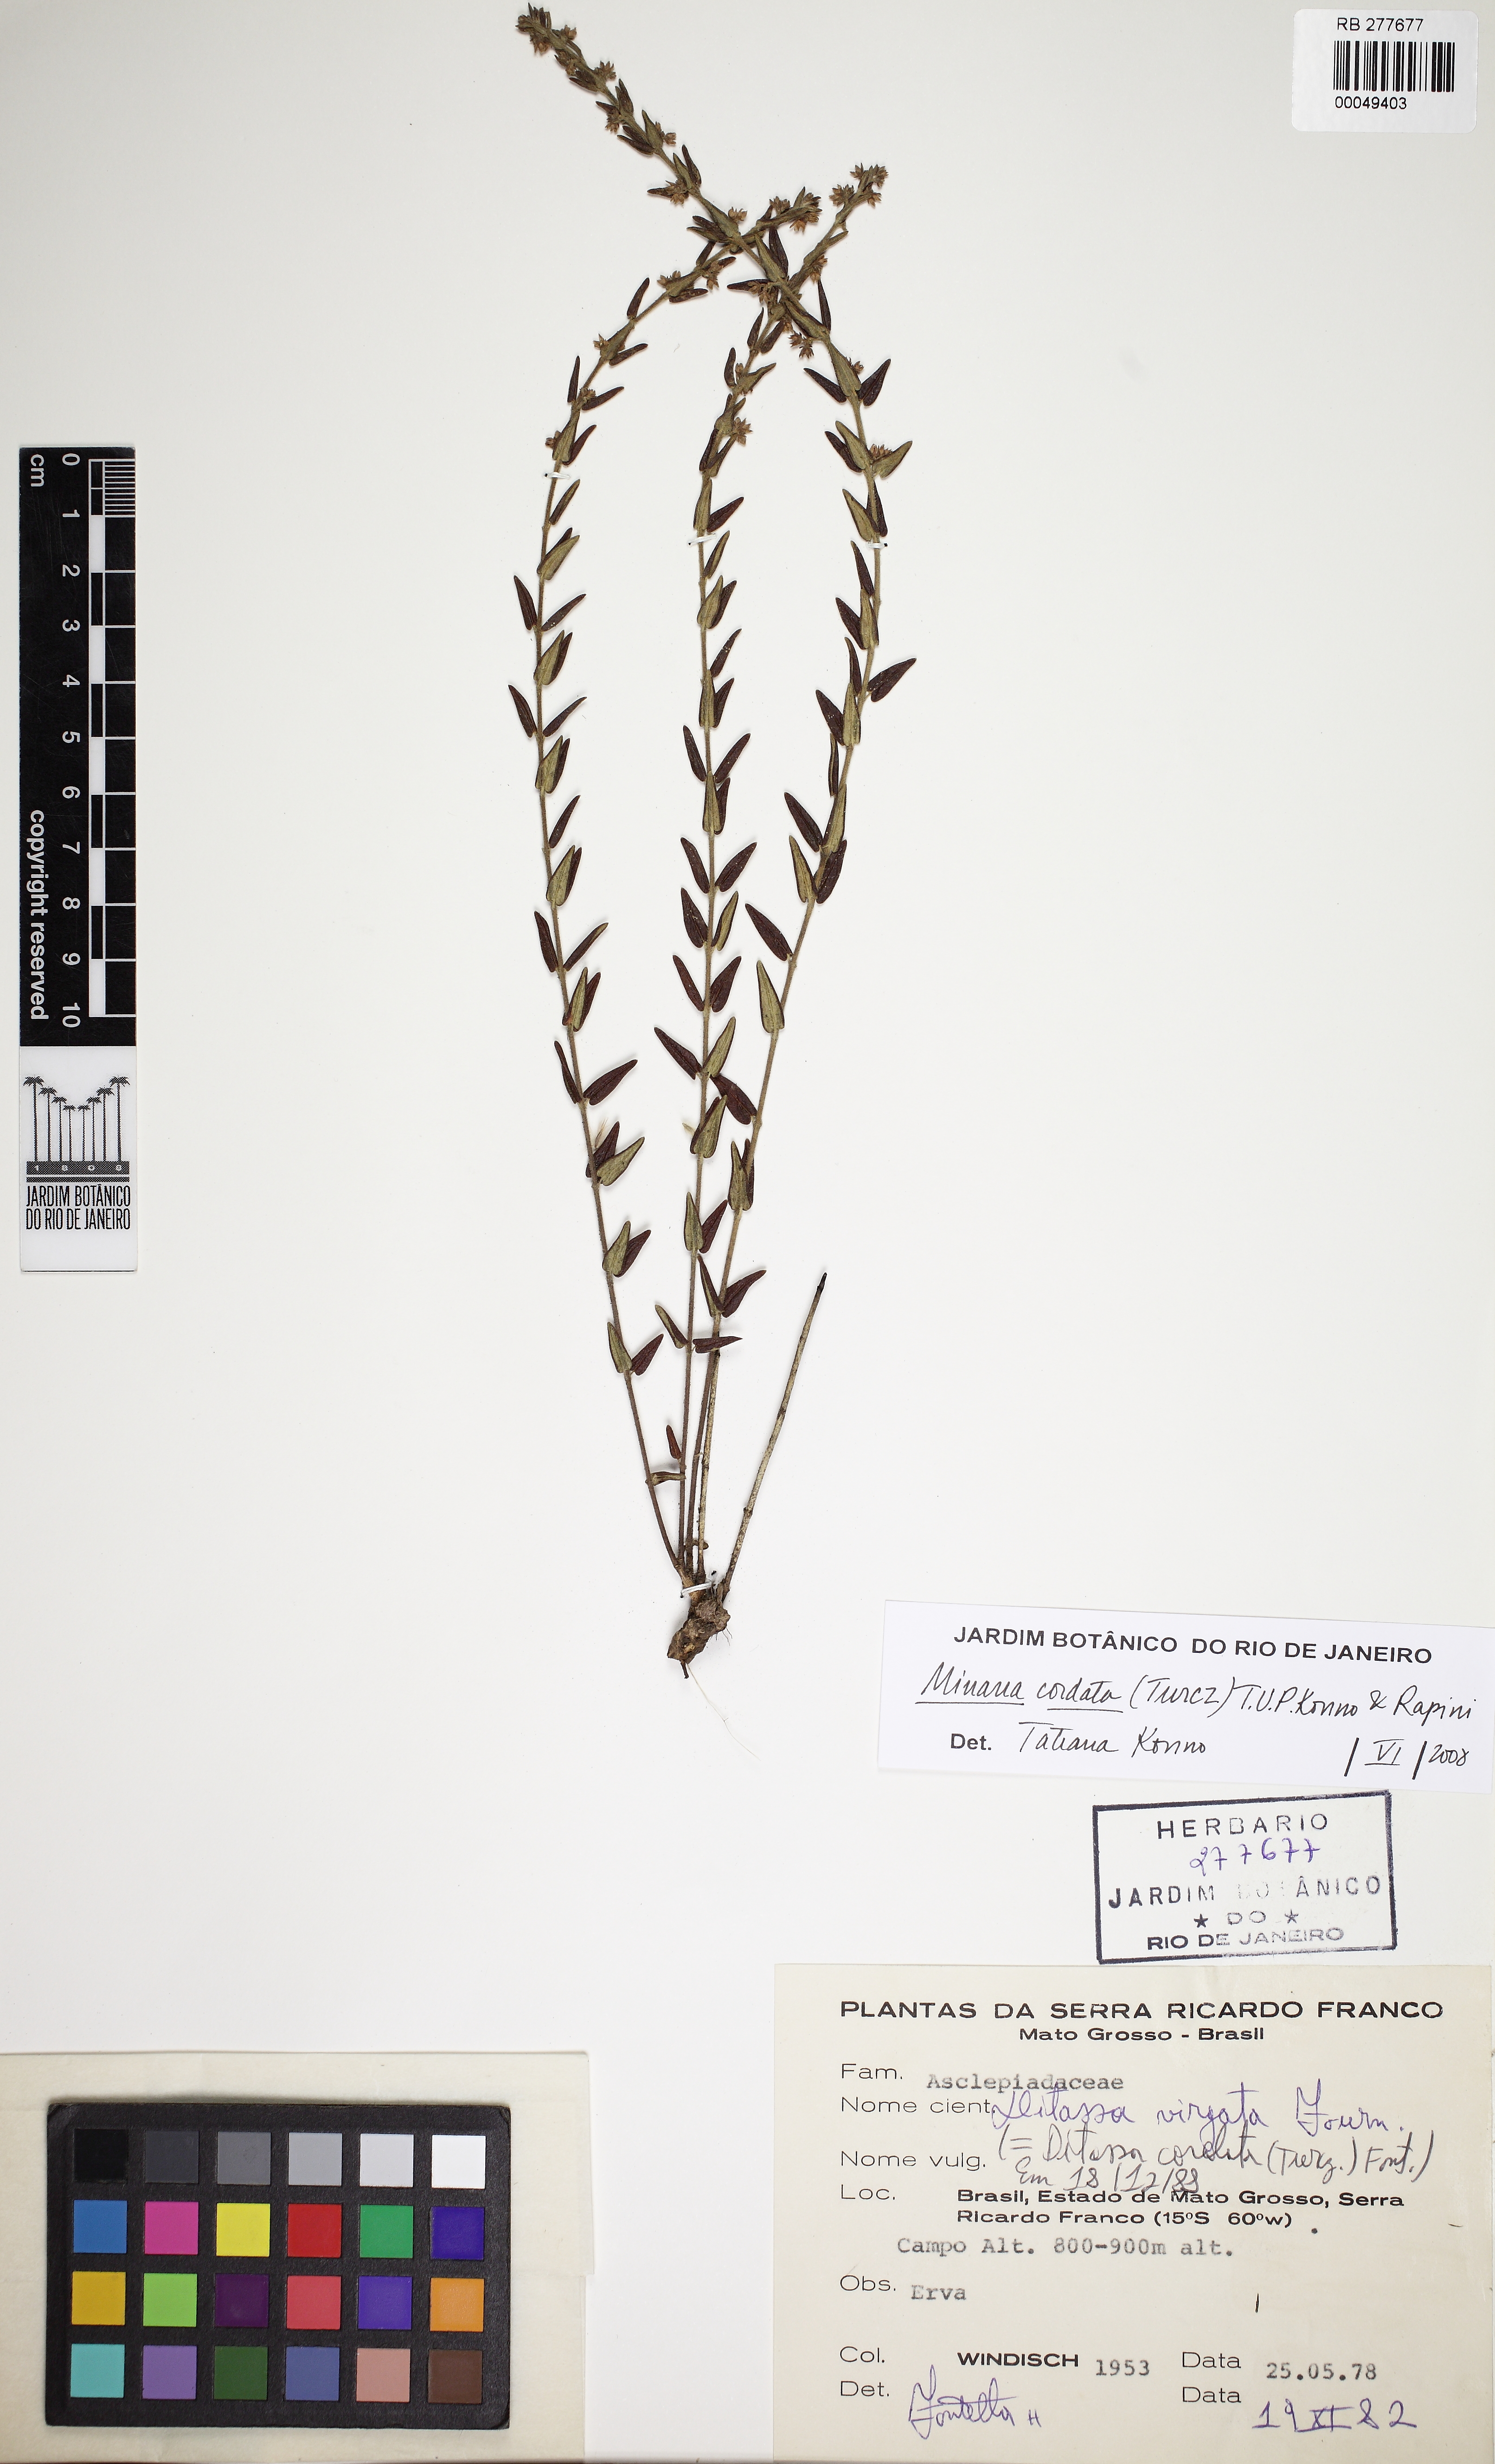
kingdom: Plantae
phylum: Tracheophyta
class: Magnoliopsida
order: Gentianales
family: Apocynaceae
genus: Minaria
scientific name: Minaria cordata
